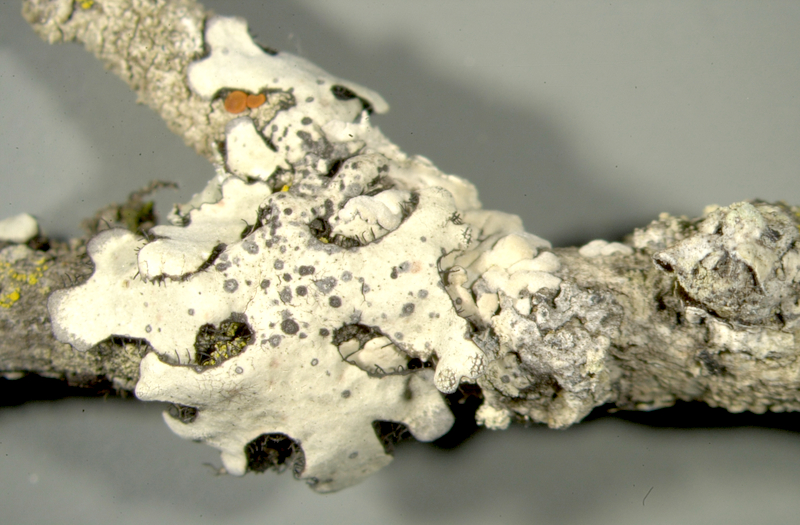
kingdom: Fungi
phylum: Ascomycota
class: Lecanoromycetes
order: Teloschistales
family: Teloschistaceae
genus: Caloplaca
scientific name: Caloplaca
